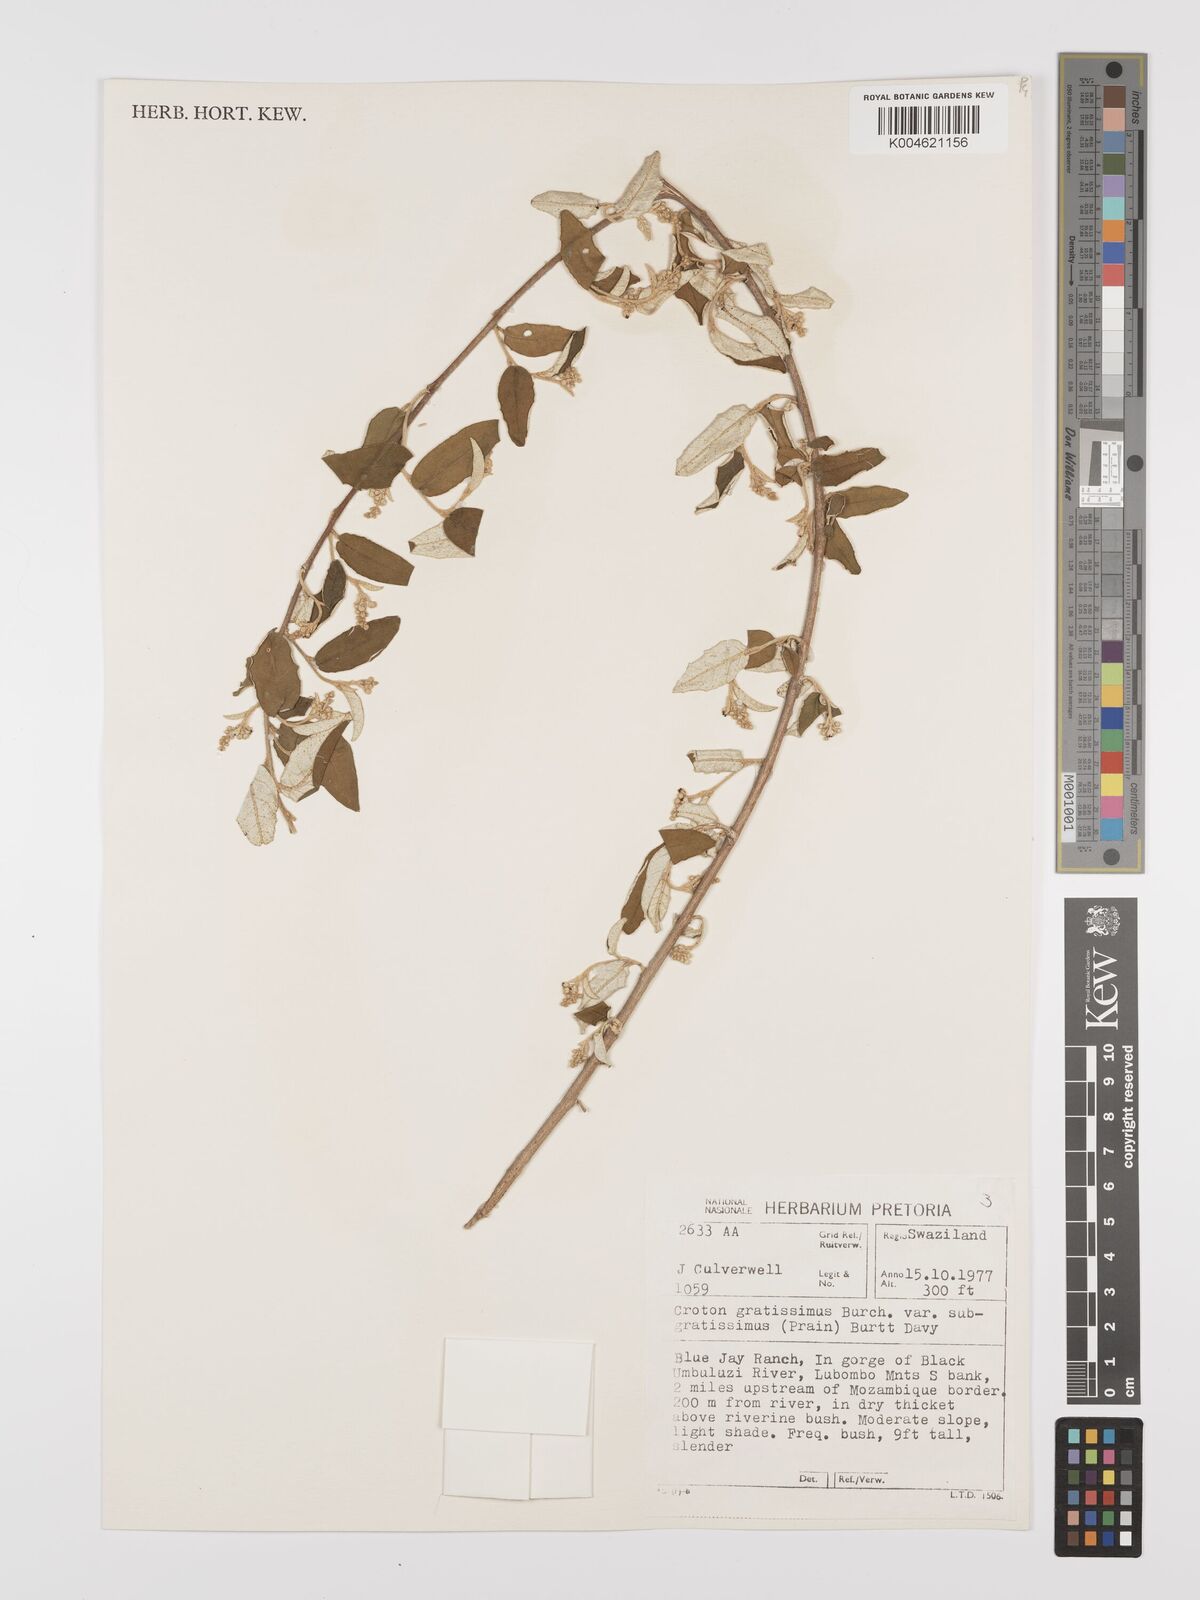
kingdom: Plantae
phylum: Tracheophyta
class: Magnoliopsida
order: Malpighiales
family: Euphorbiaceae
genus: Croton
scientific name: Croton gratissimus
